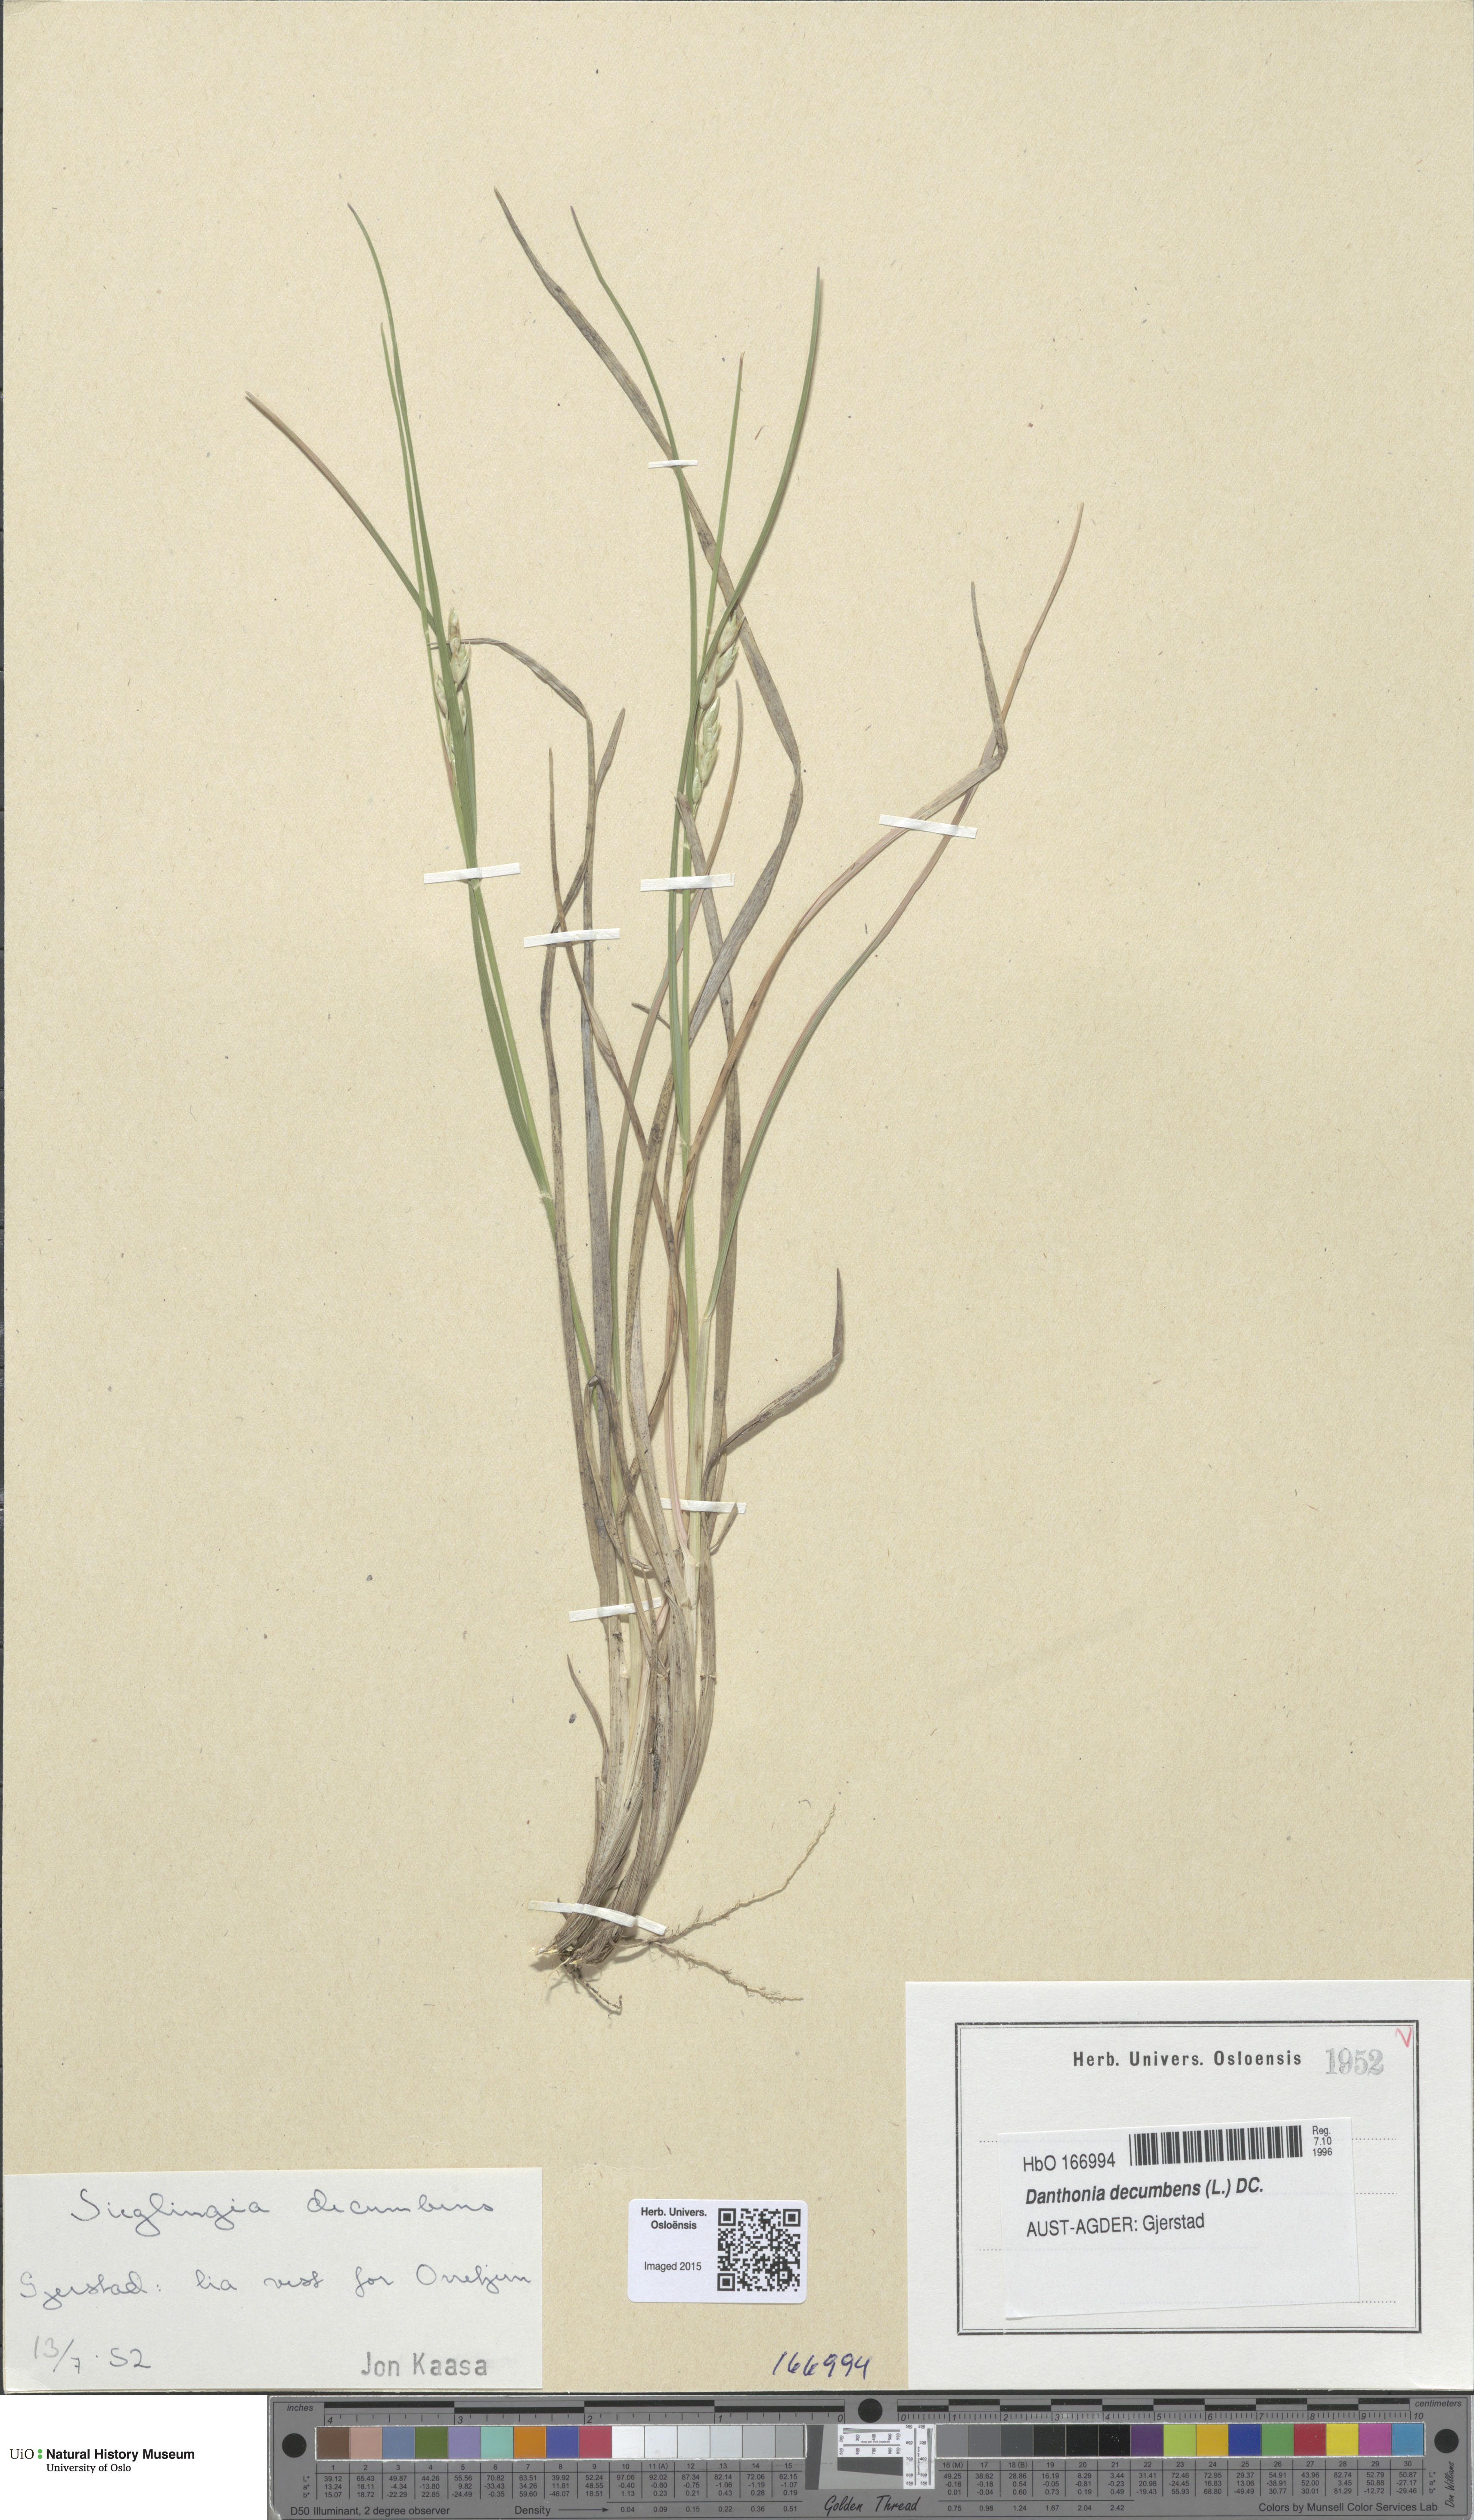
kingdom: Plantae
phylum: Tracheophyta
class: Liliopsida
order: Poales
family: Poaceae
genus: Danthonia
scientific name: Danthonia decumbens
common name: Common heathgrass
